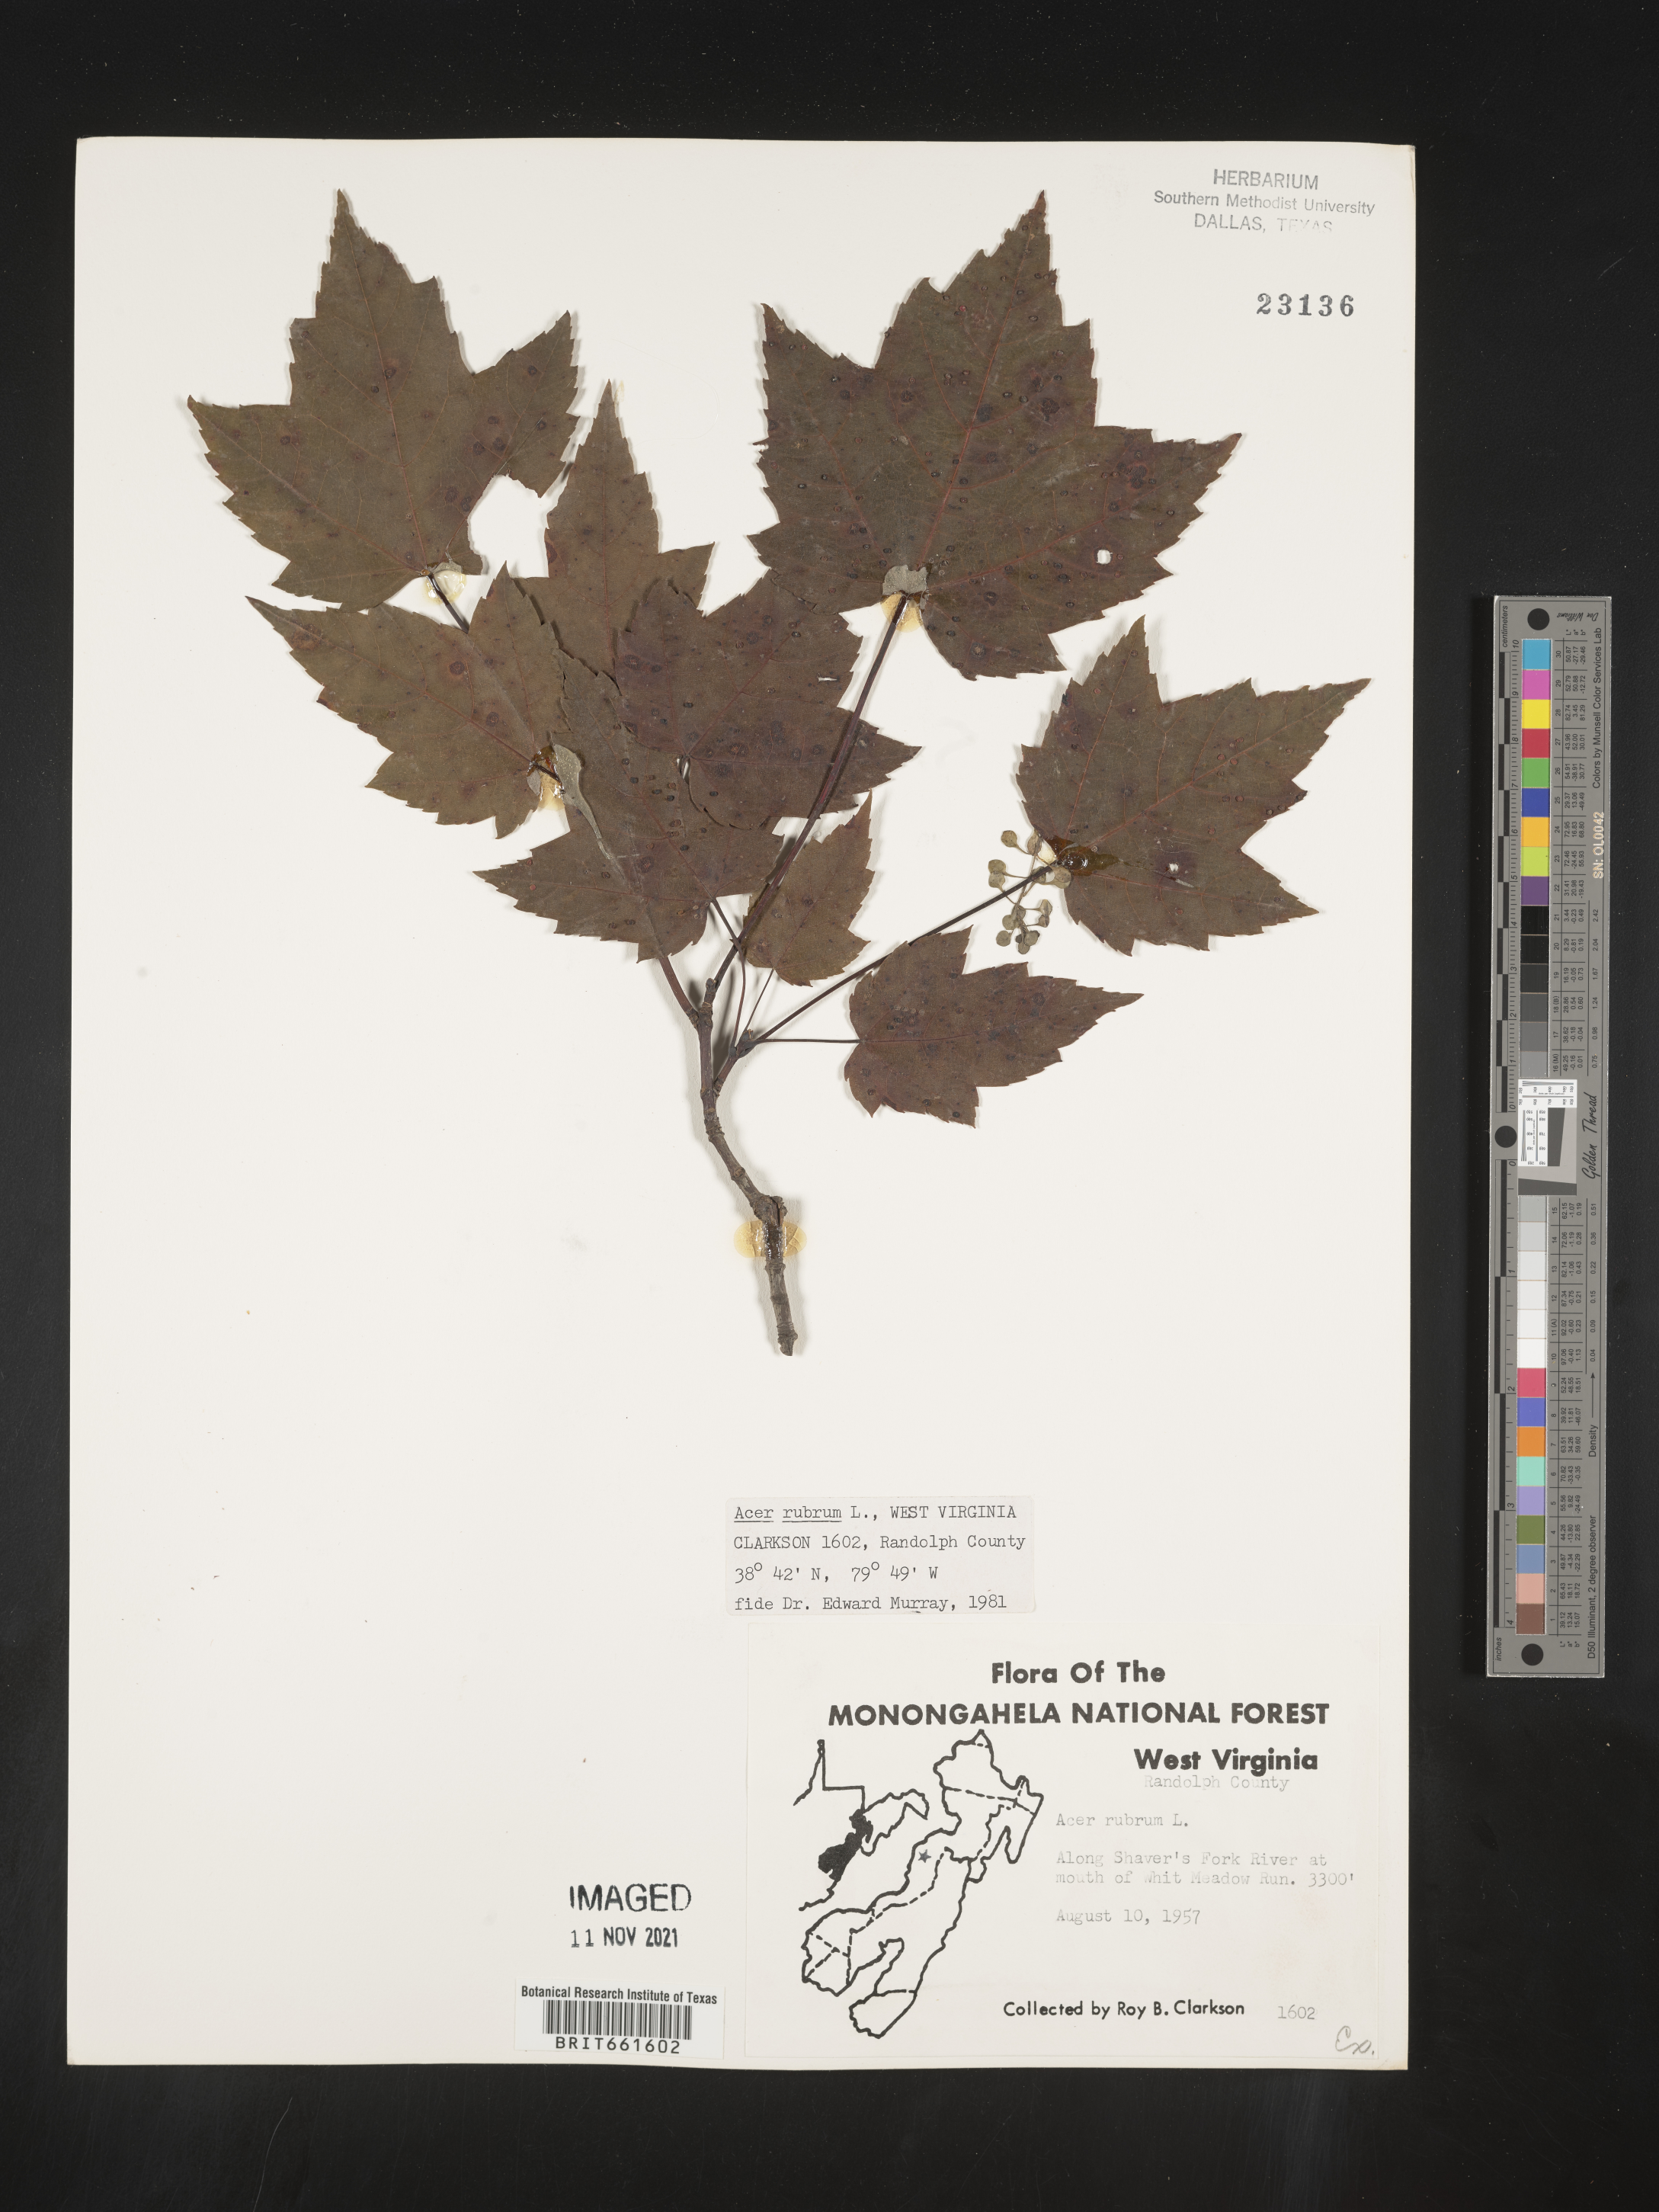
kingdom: Plantae
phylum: Tracheophyta
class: Magnoliopsida
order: Sapindales
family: Sapindaceae
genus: Acer
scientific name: Acer rubrum
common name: Red maple
